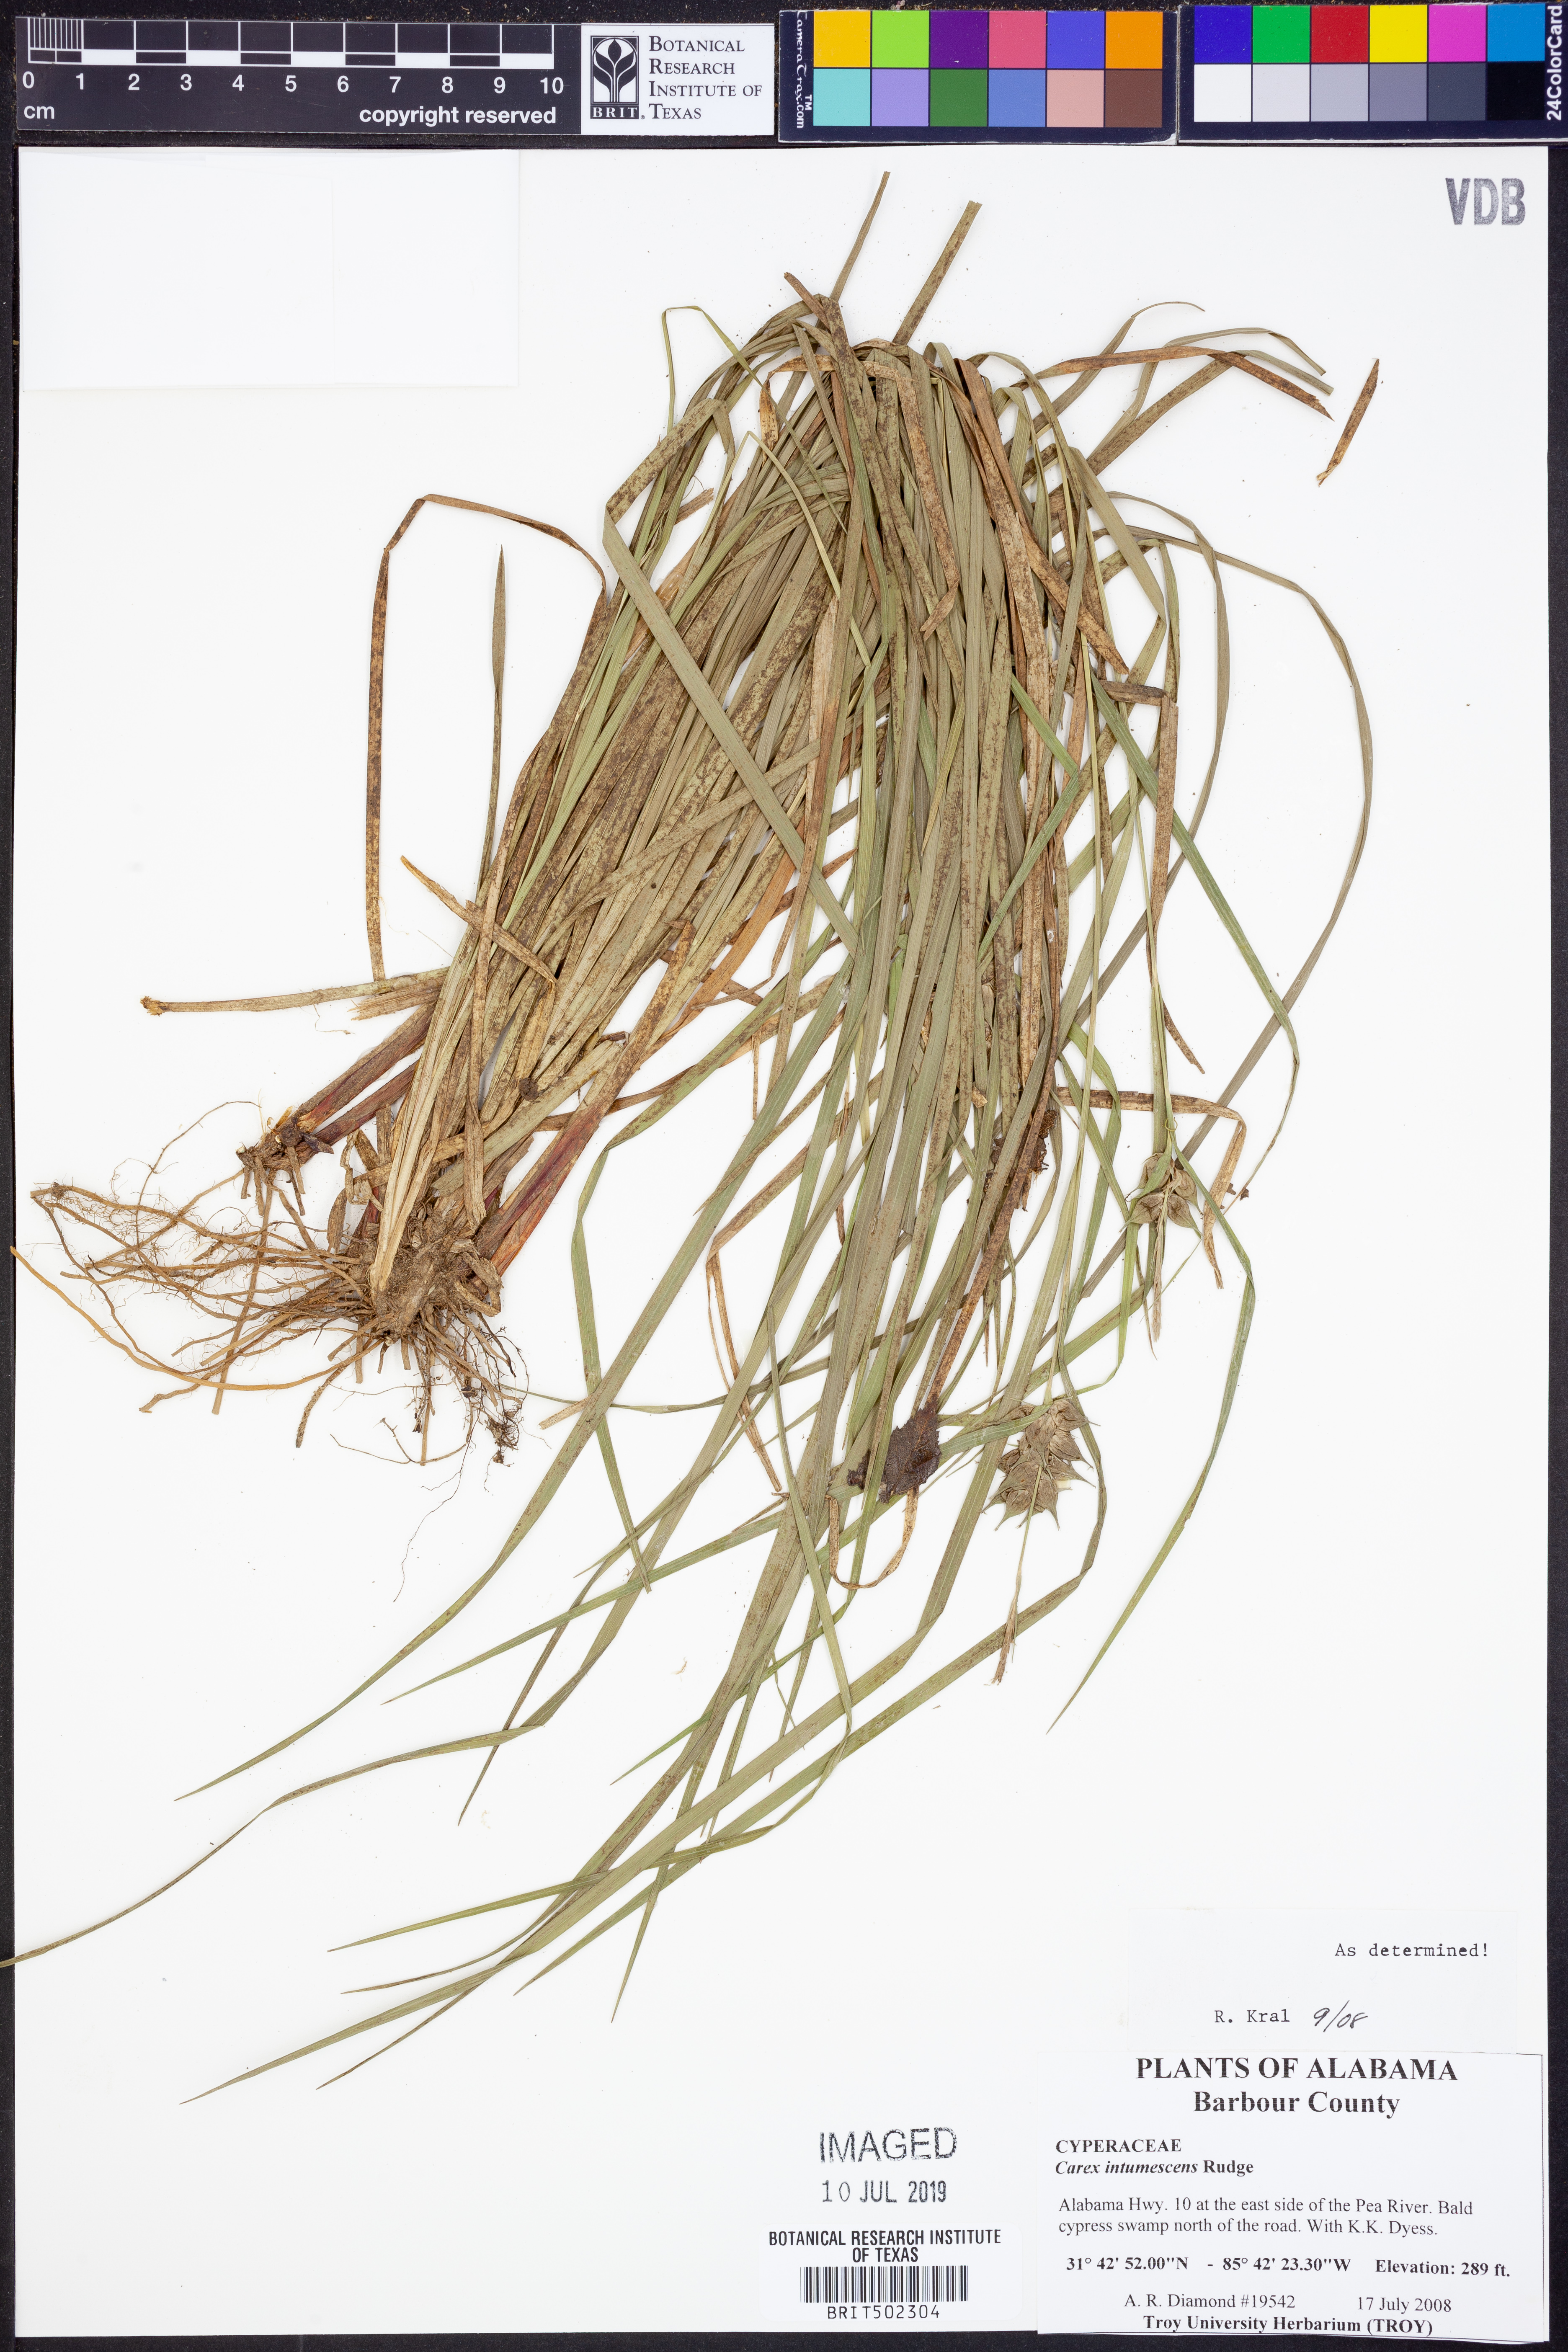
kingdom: Plantae
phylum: Tracheophyta
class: Liliopsida
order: Poales
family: Cyperaceae
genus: Carex
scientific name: Carex intumescens
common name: Greater bladder sedge
